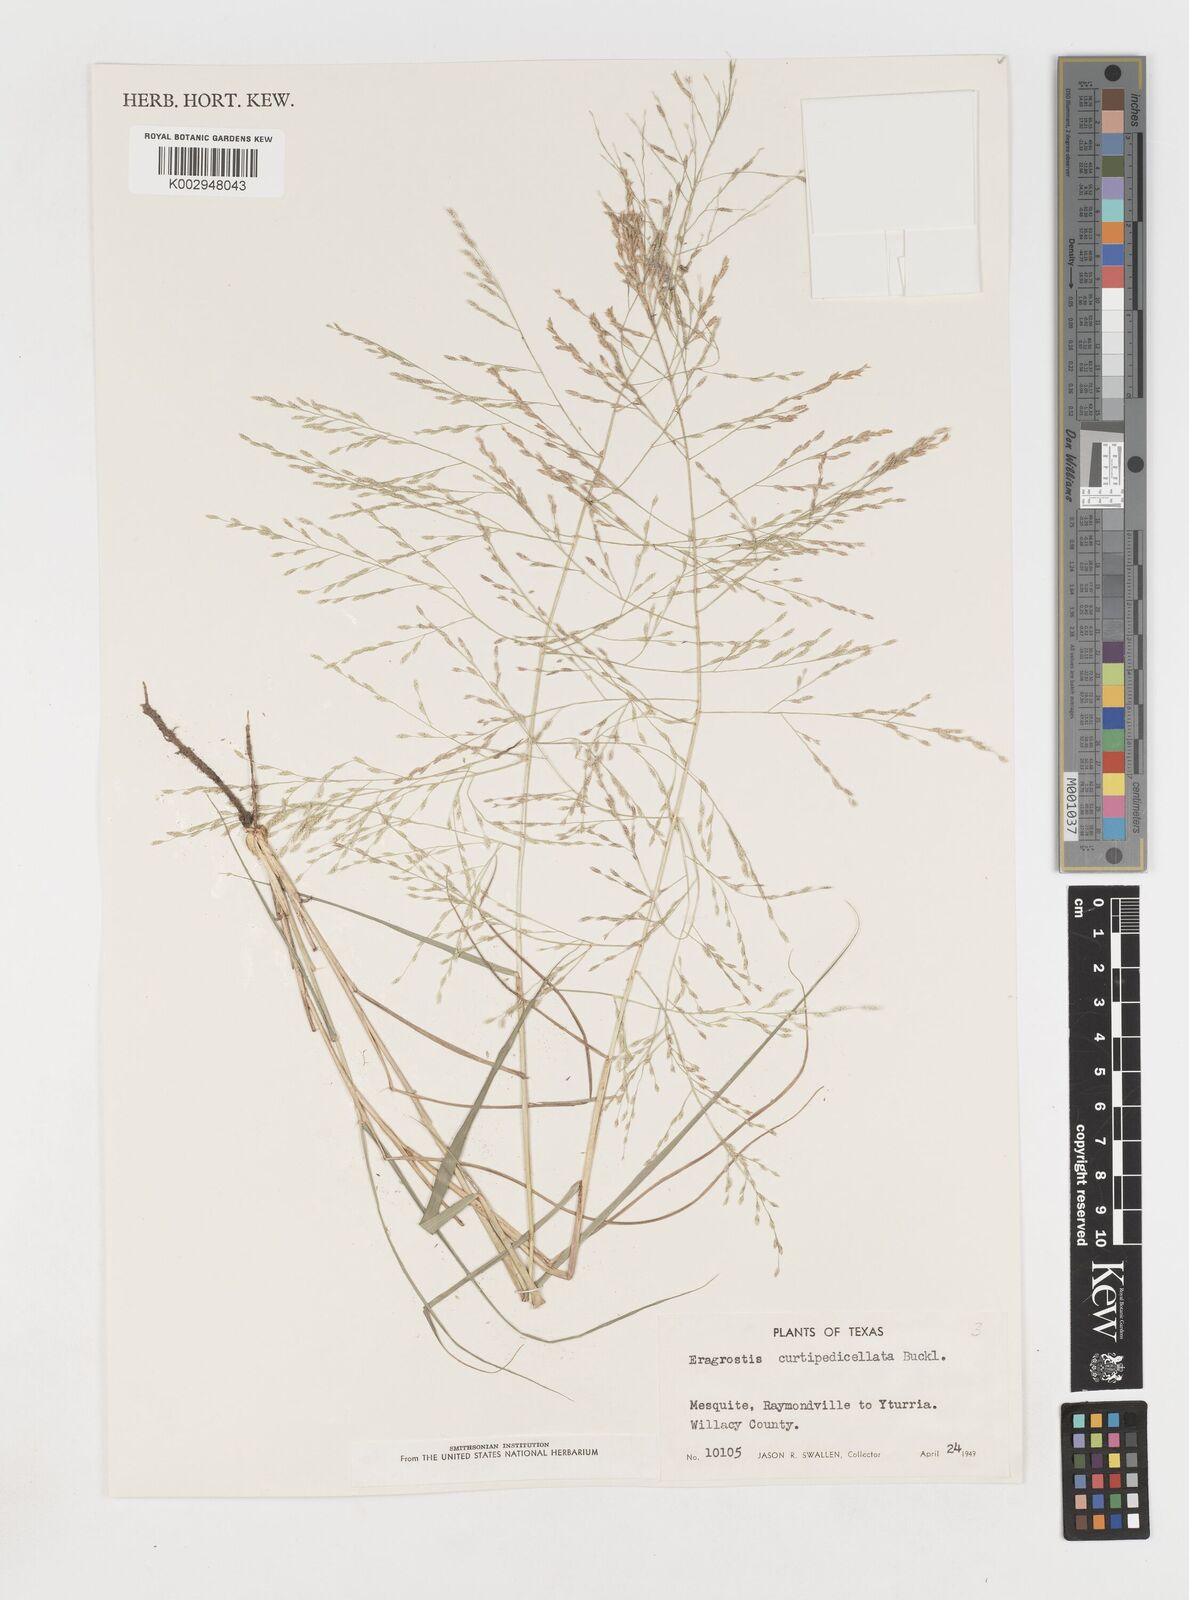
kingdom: Plantae
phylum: Tracheophyta
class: Liliopsida
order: Poales
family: Poaceae
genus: Eragrostis
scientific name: Eragrostis curtipedicellata
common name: Gummy love grass
